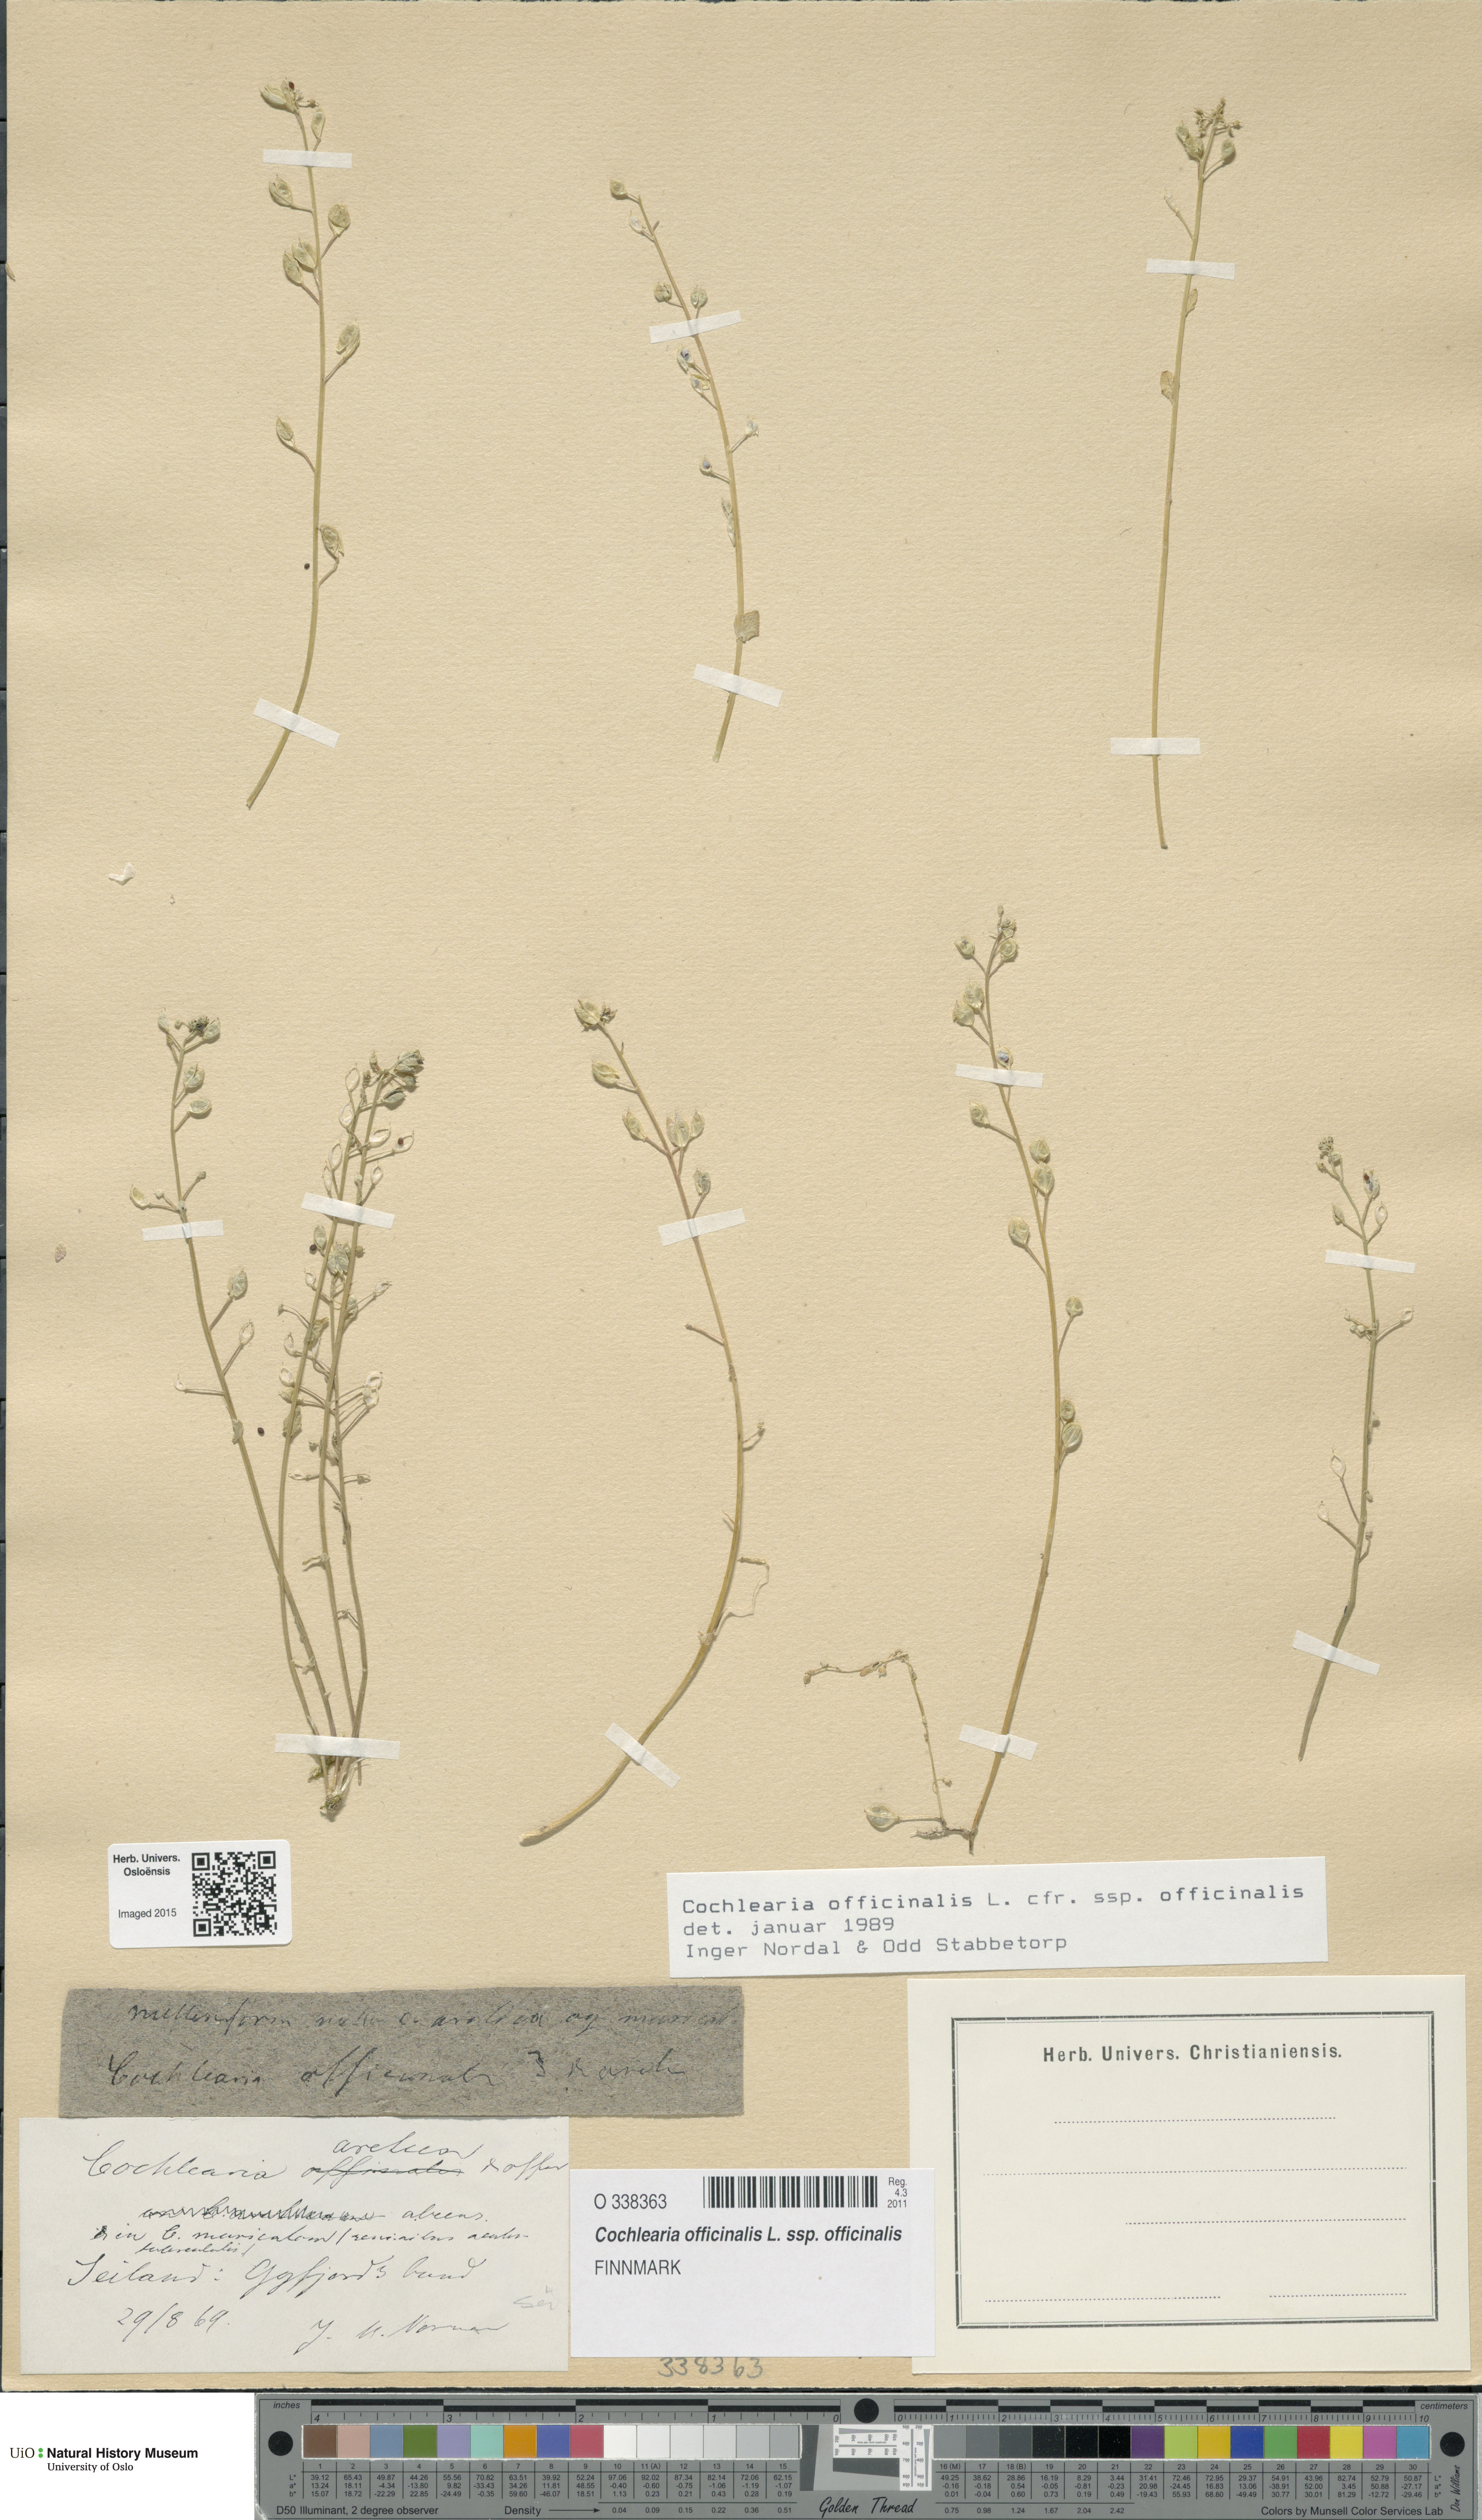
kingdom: Plantae
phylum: Tracheophyta
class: Magnoliopsida
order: Brassicales
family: Brassicaceae
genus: Cochlearia
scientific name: Cochlearia officinalis
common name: Scurvy-grass
